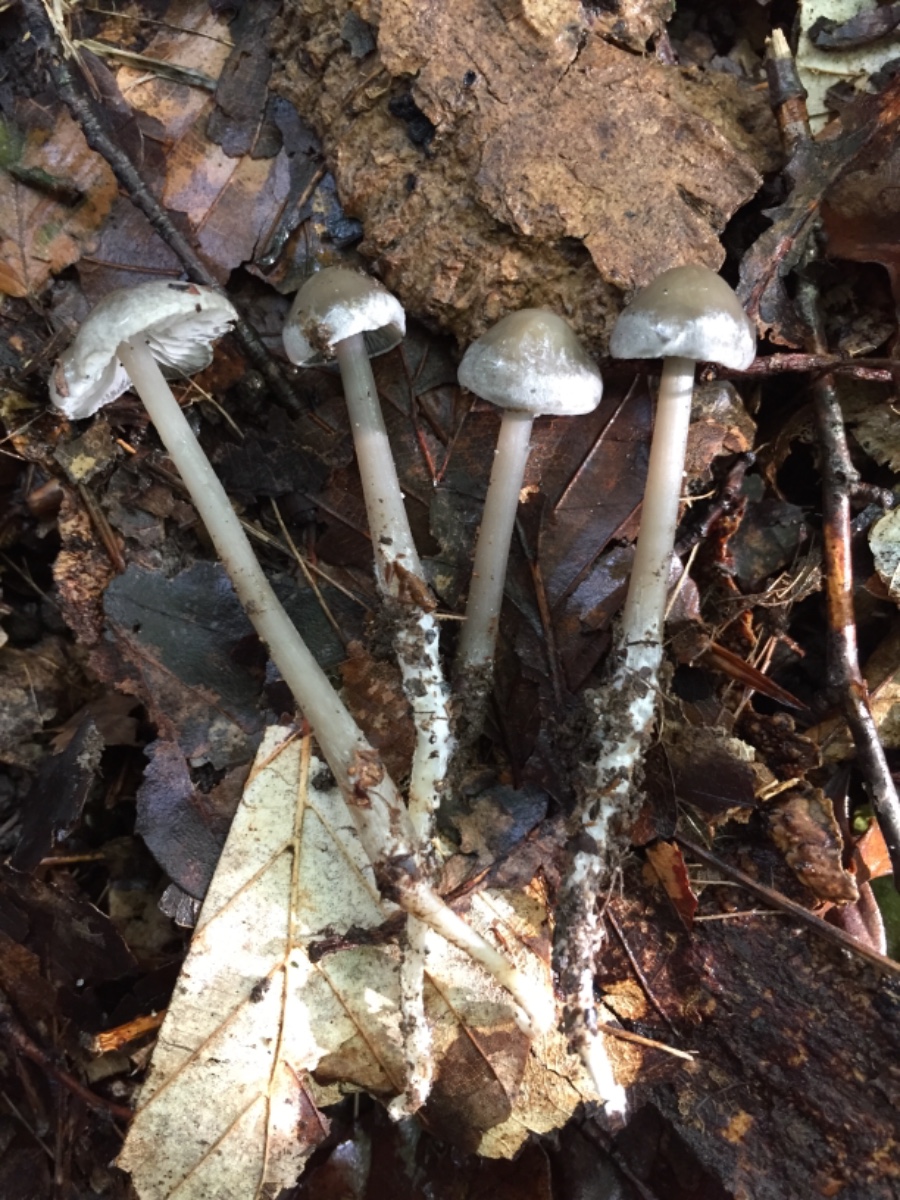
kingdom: Fungi
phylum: Basidiomycota
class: Agaricomycetes
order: Agaricales
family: Lyophyllaceae
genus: Tephrocybe
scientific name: Tephrocybe rancida
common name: mel-gråblad
